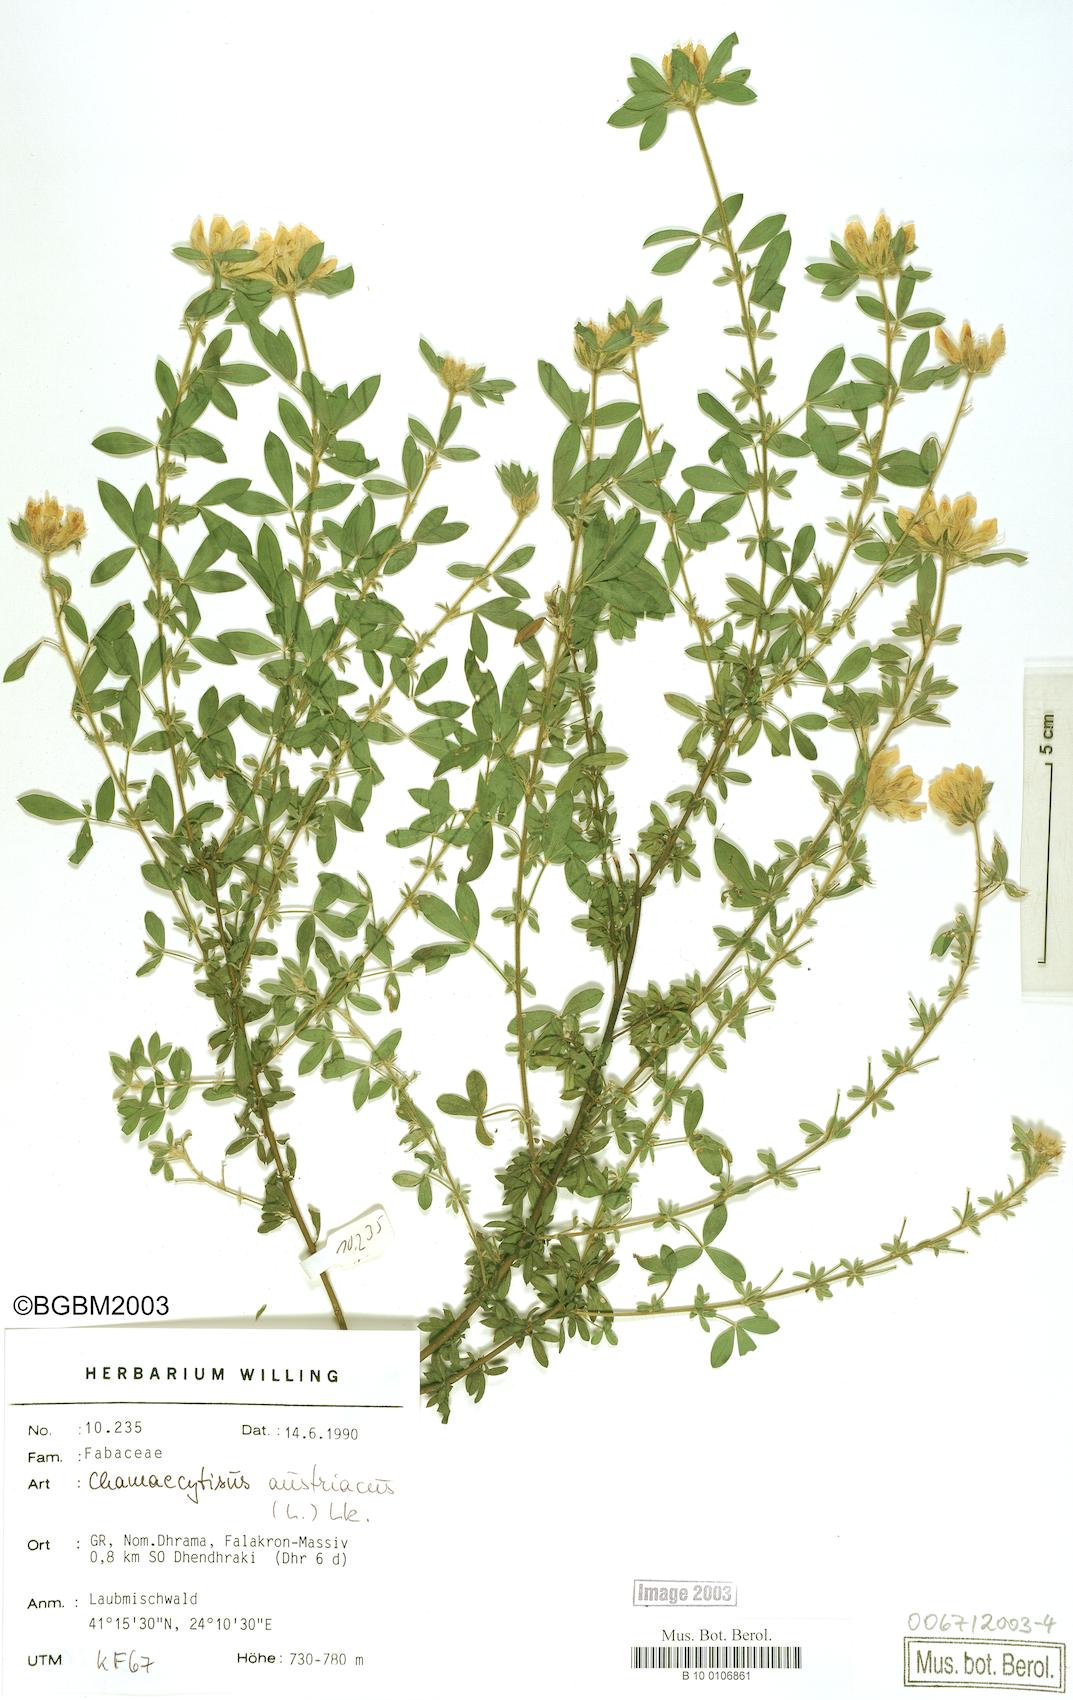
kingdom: Plantae
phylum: Tracheophyta
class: Magnoliopsida
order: Fabales
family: Fabaceae
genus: Chamaecytisus
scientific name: Chamaecytisus austriacus
